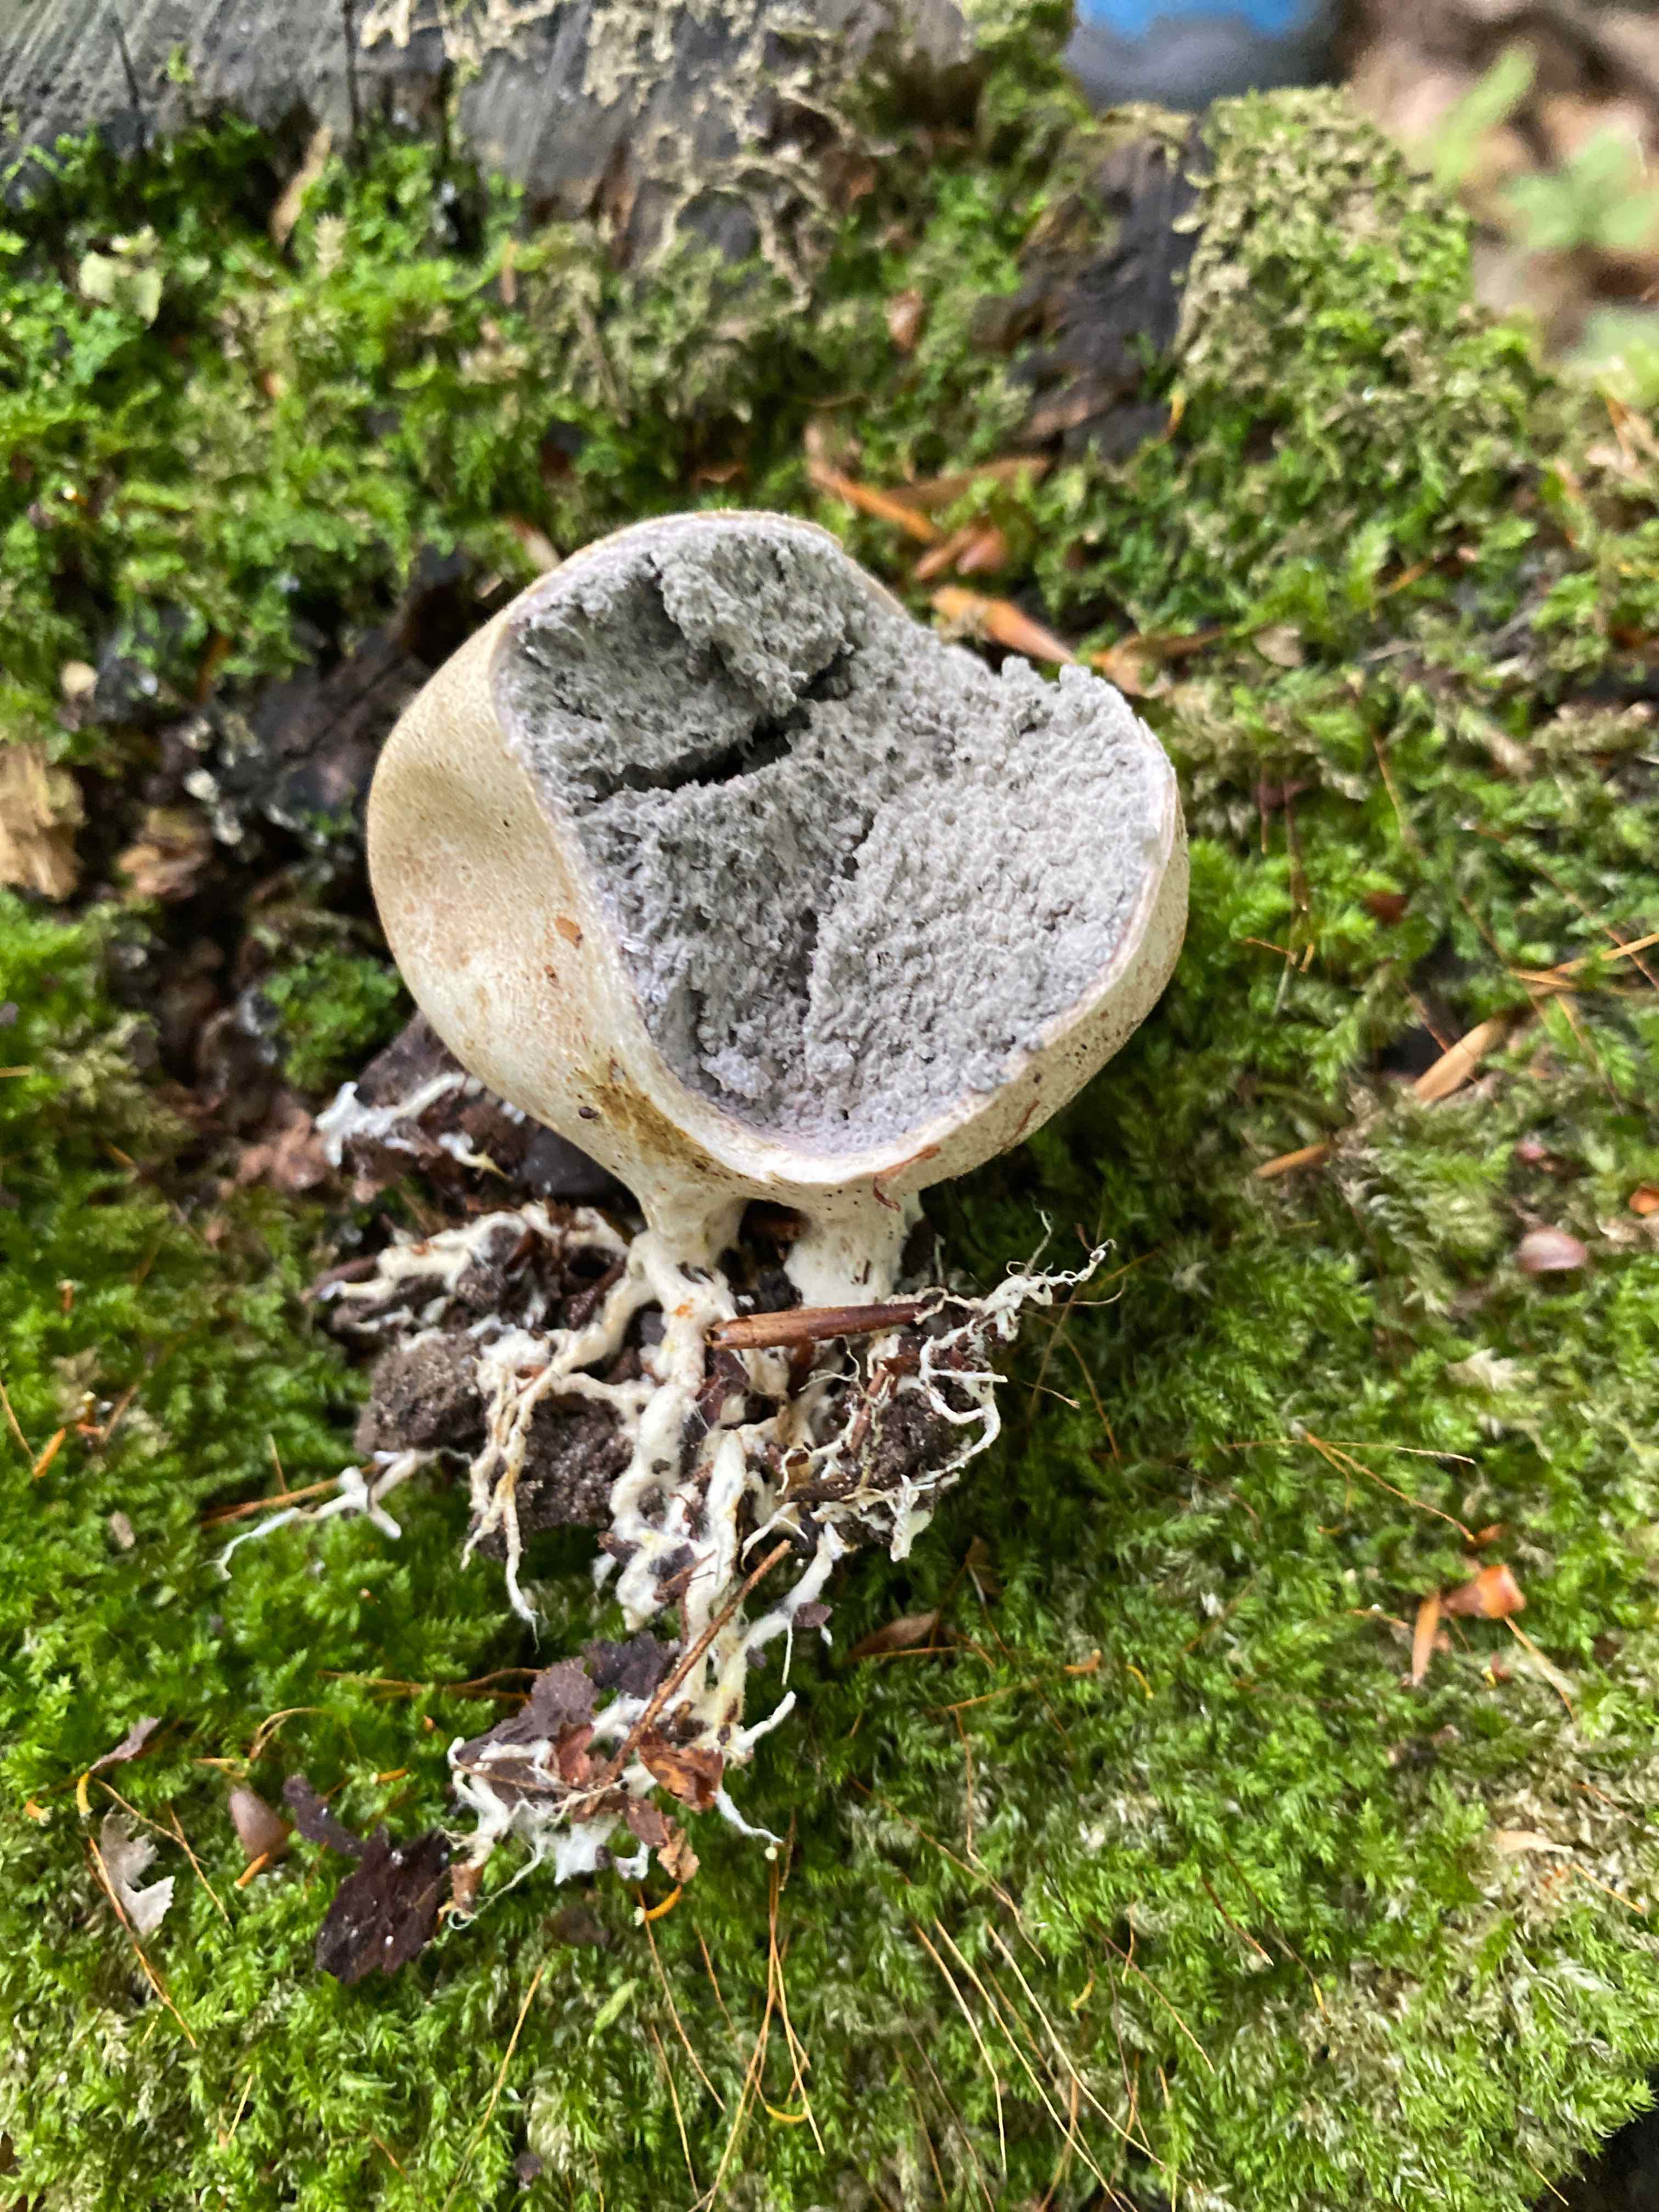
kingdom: Fungi
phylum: Basidiomycota
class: Agaricomycetes
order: Boletales
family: Sclerodermataceae
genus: Scleroderma
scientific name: Scleroderma
